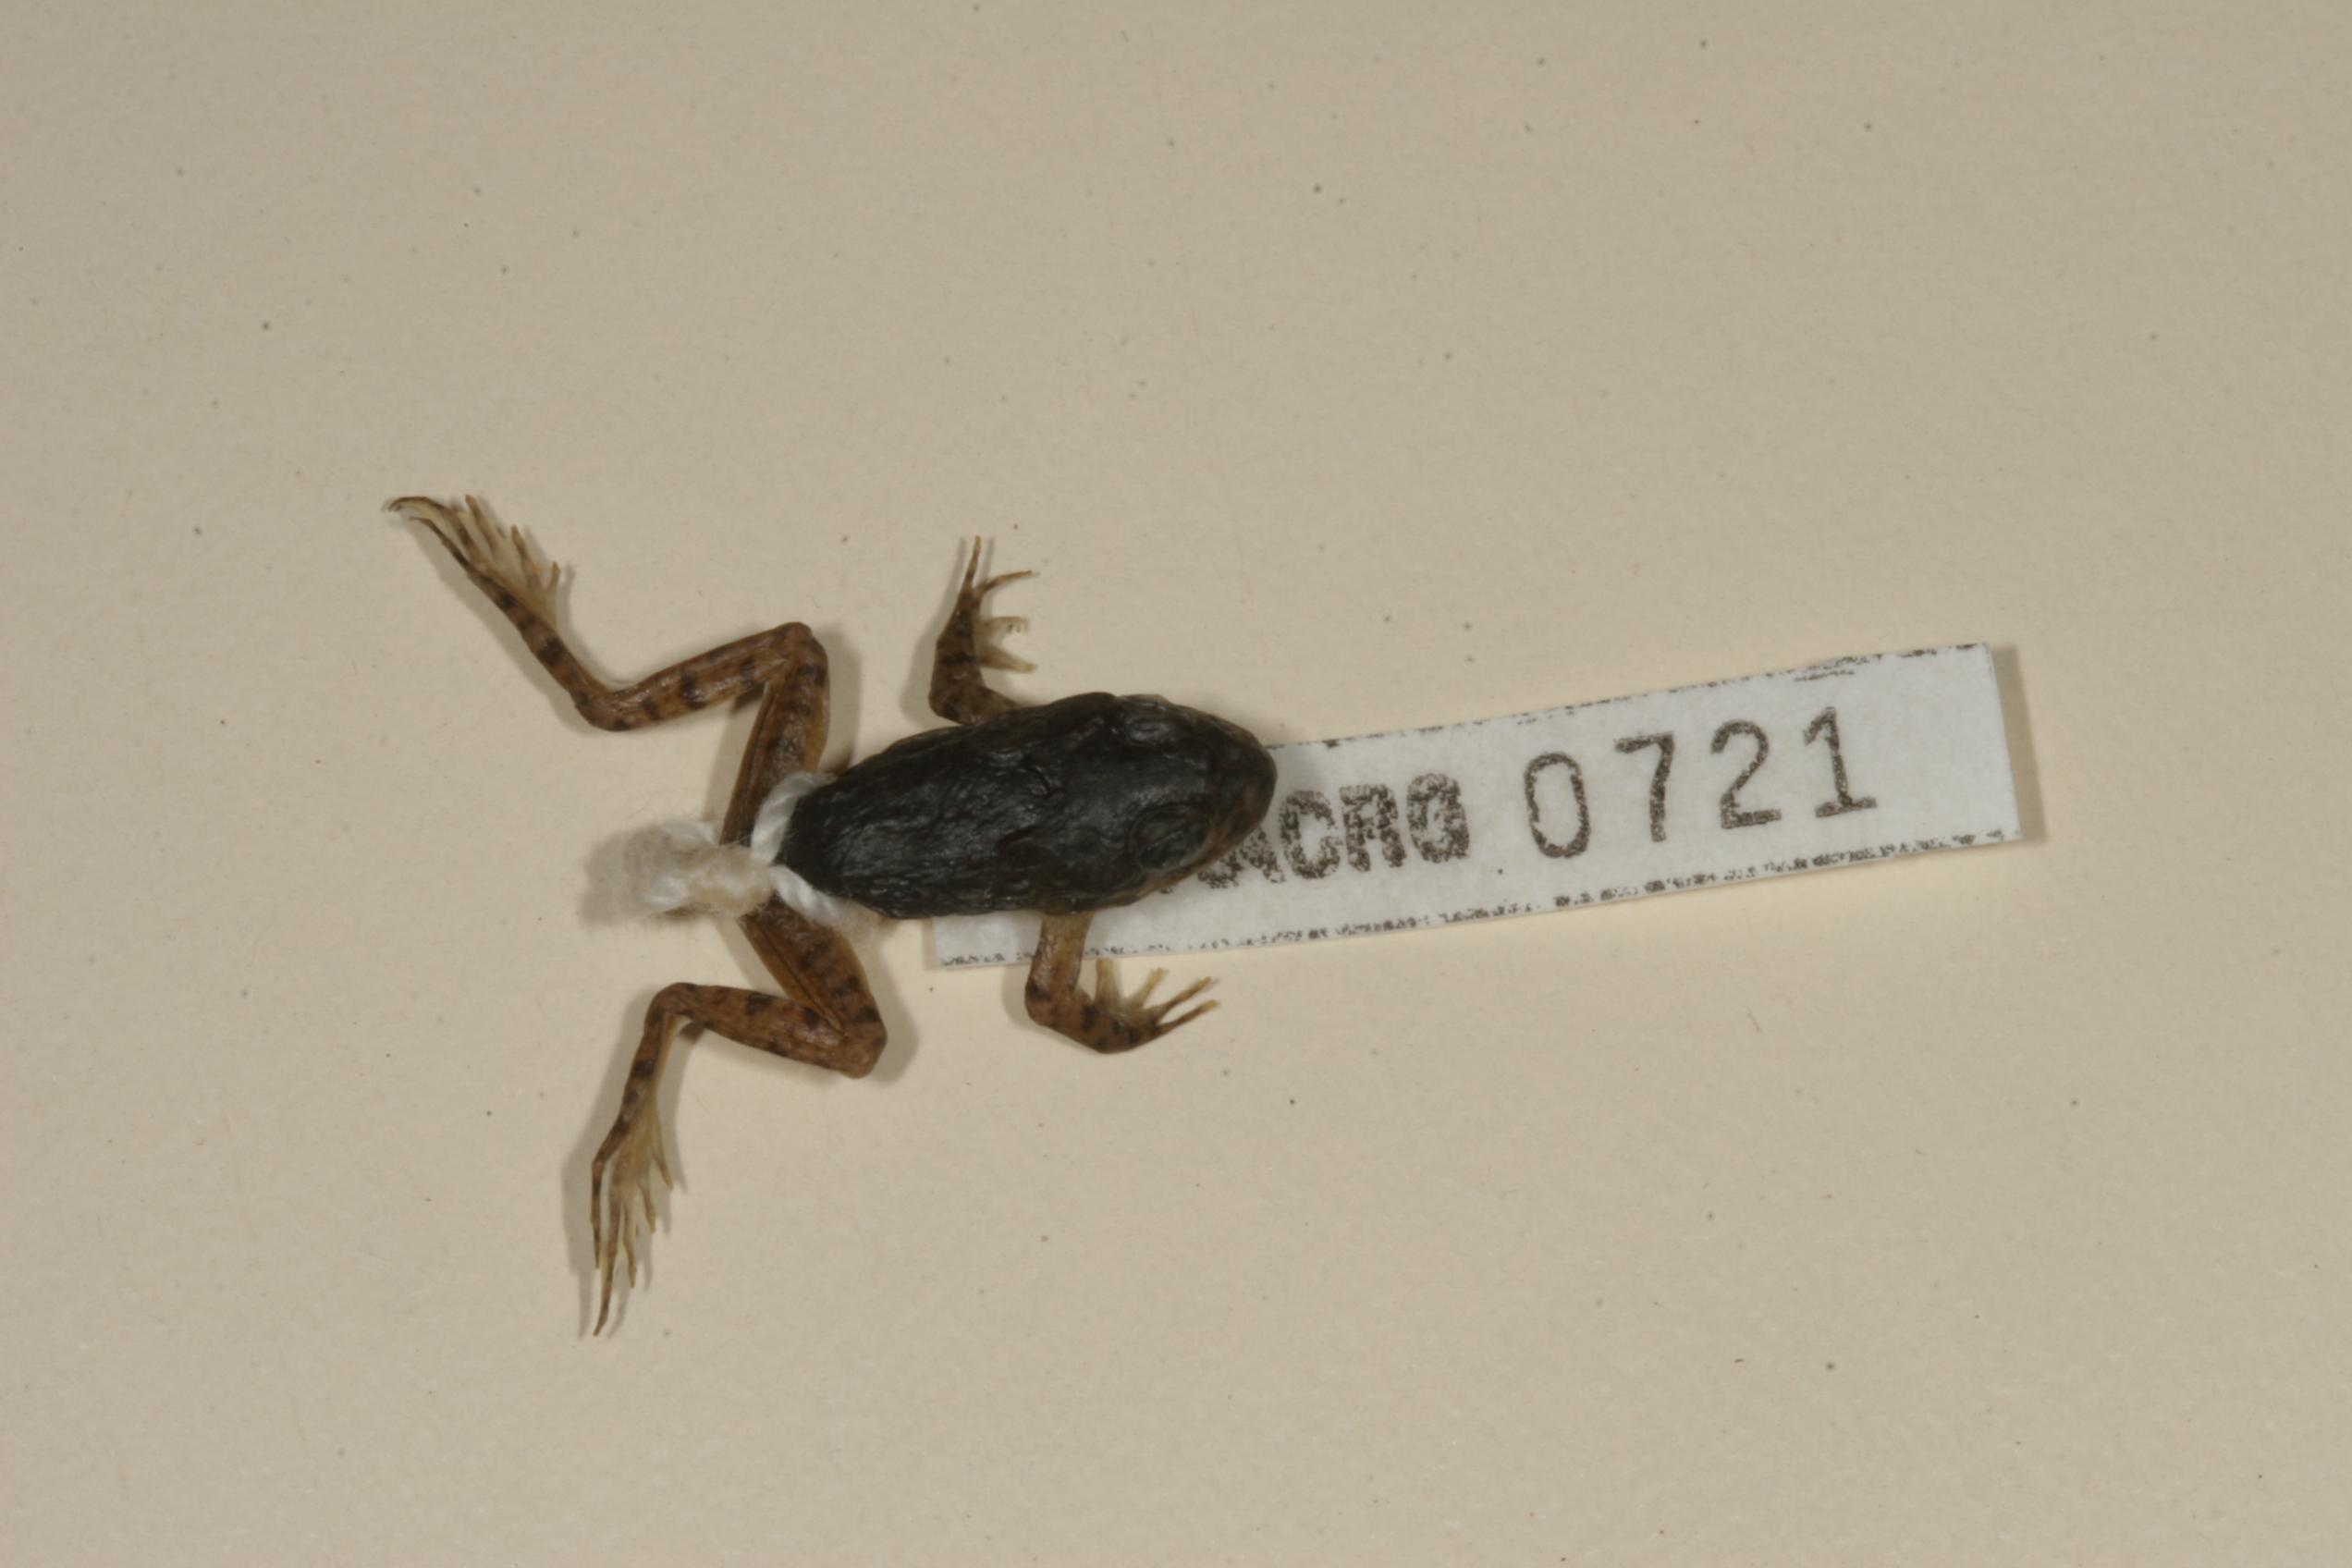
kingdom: Animalia
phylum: Chordata
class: Amphibia
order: Anura
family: Pyxicephalidae
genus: Amietia
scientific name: Amietia vertebralis
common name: Drakensberg stream frog
